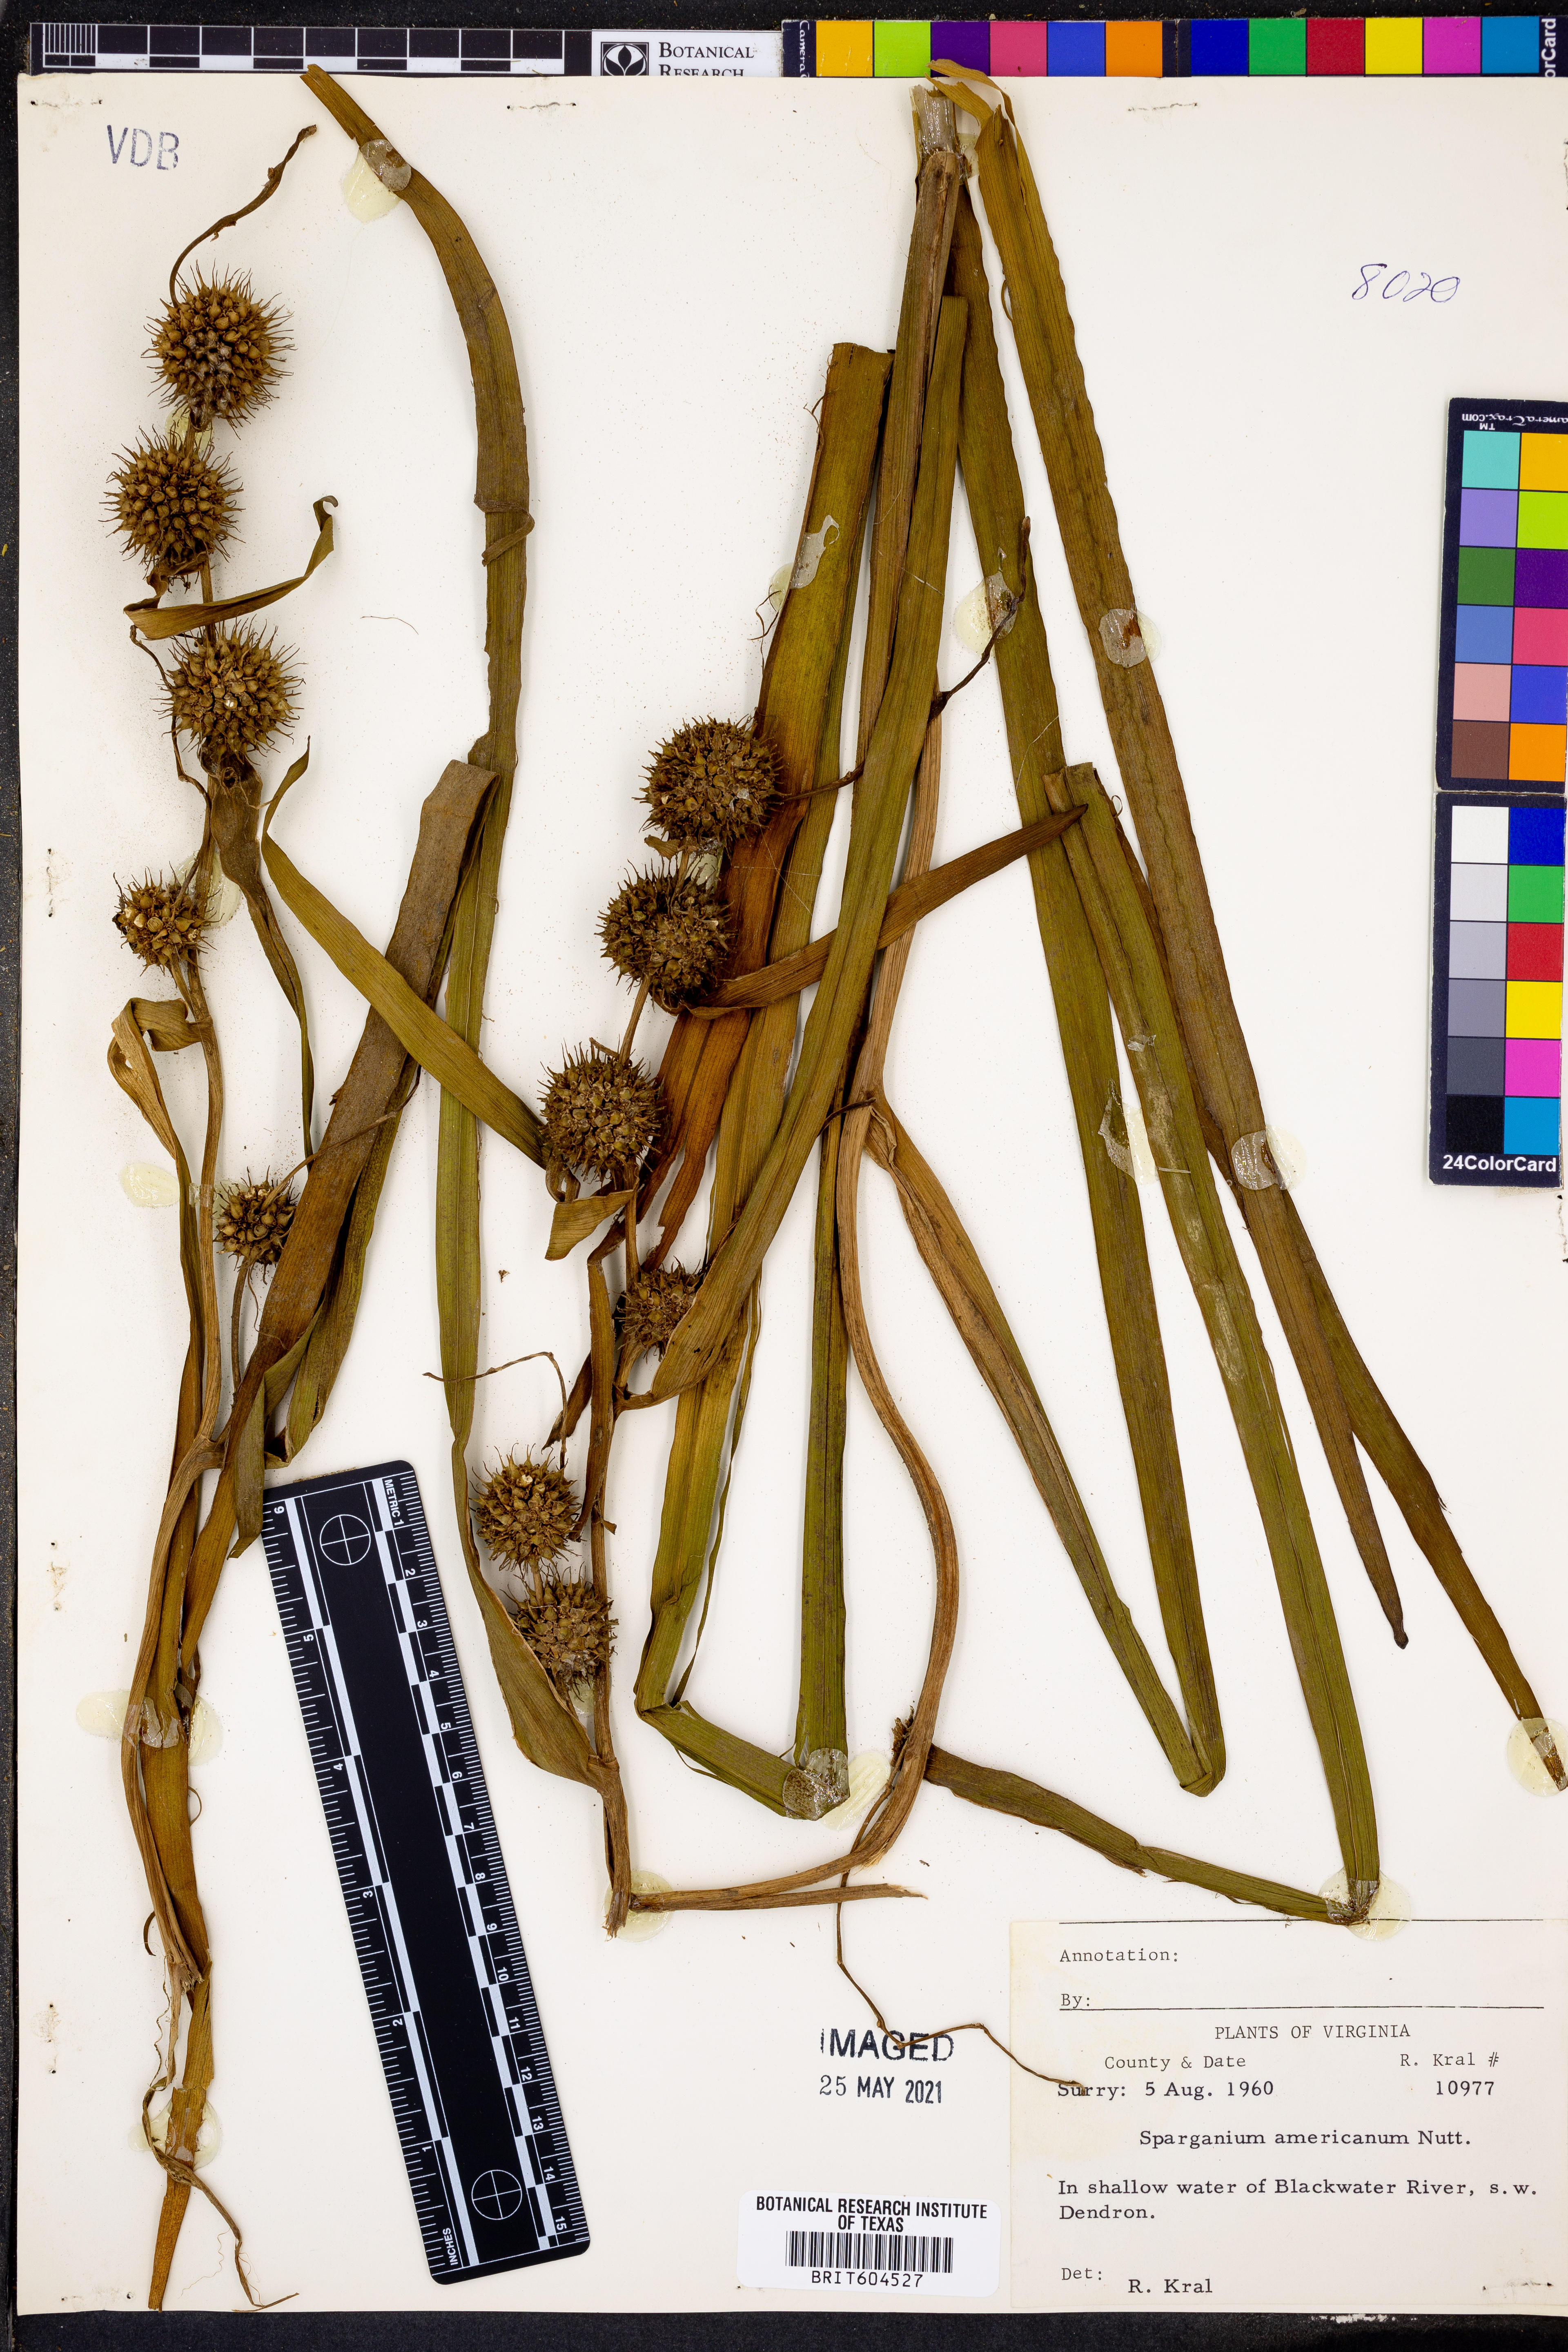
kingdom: Plantae
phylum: Tracheophyta
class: Liliopsida
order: Poales
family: Typhaceae
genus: Sparganium
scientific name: Sparganium americanum
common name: American burreed
